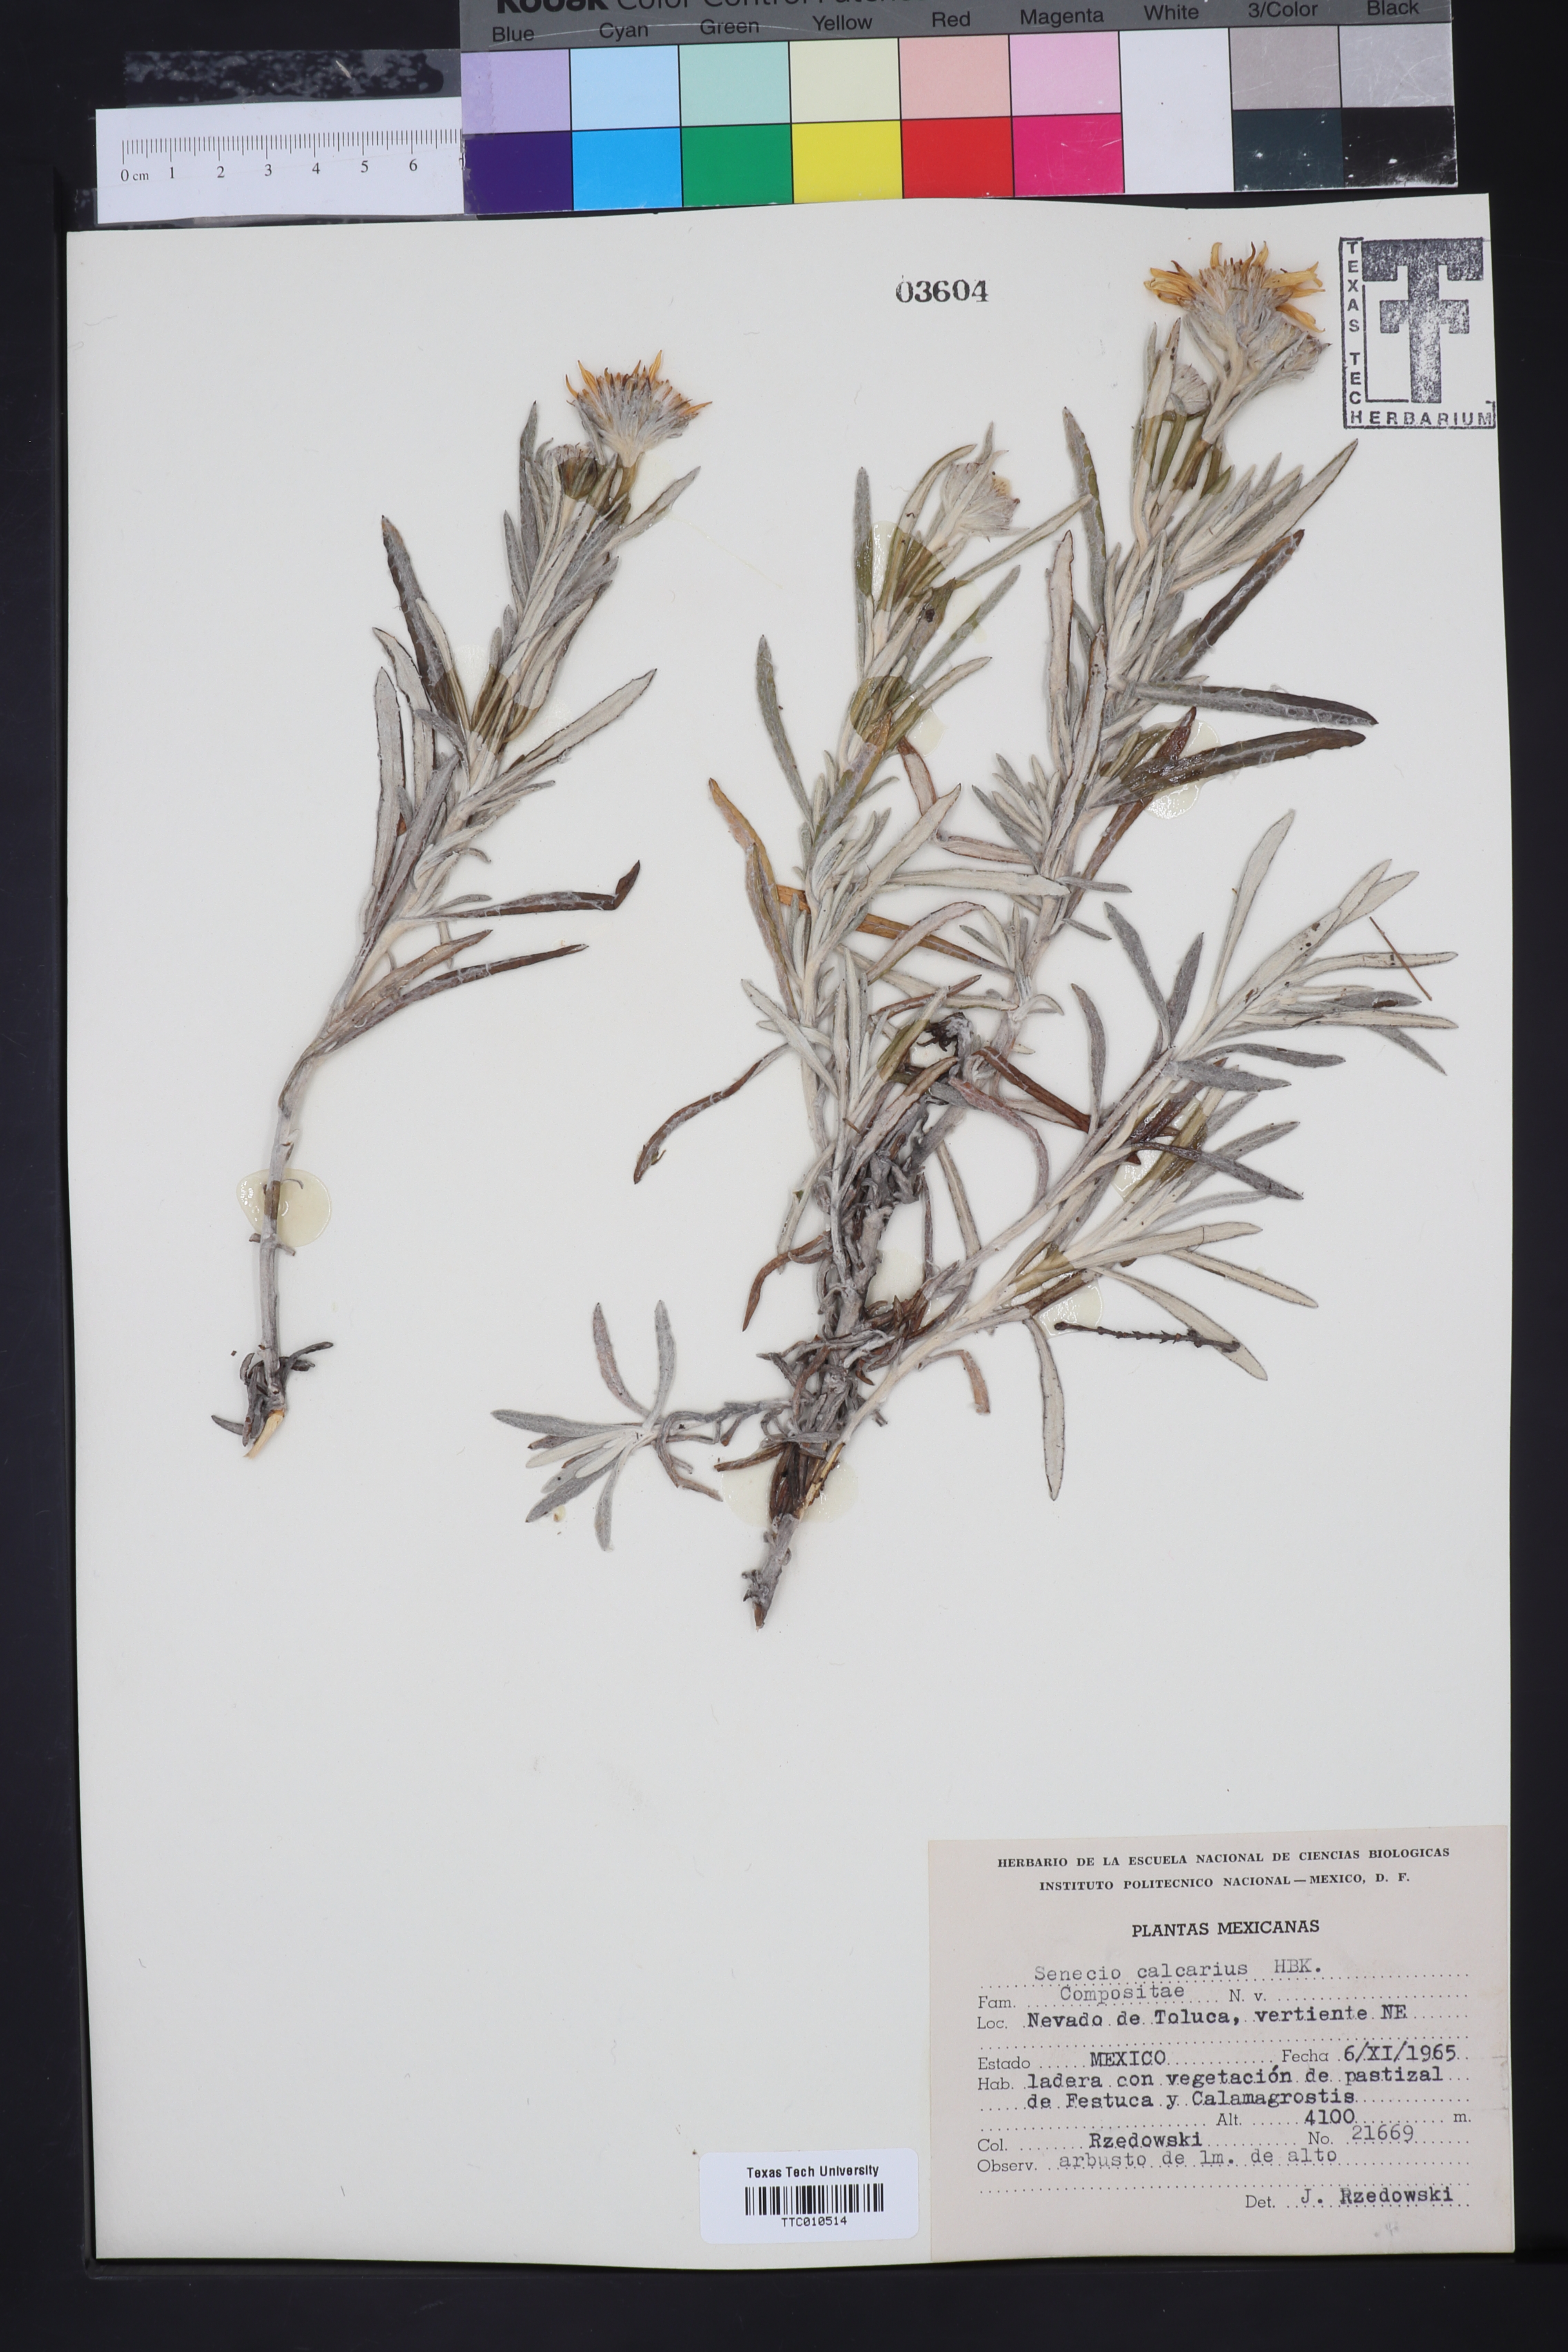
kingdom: Plantae
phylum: Tracheophyta
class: Magnoliopsida
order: Asterales
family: Asteraceae
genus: Senecio
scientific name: Senecio mairetianus
